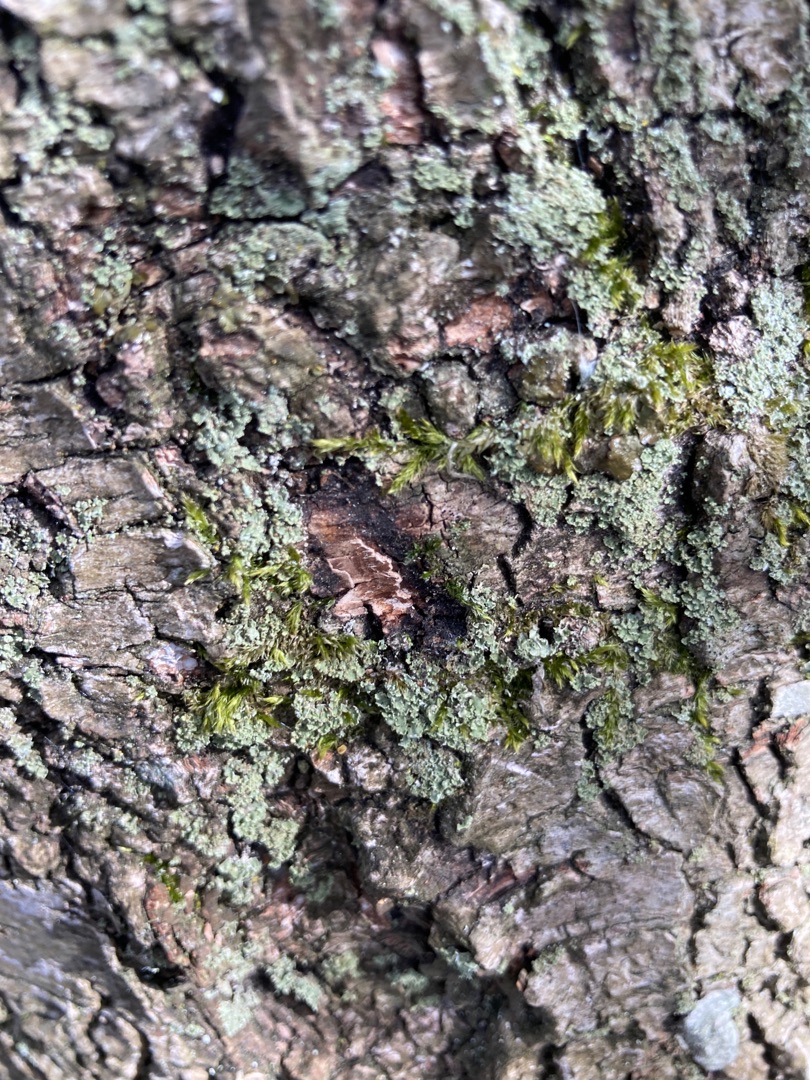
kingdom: Fungi
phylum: Ascomycota
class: Lecanoromycetes
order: Caliciales
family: Physciaceae
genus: Physcia
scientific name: Physcia
